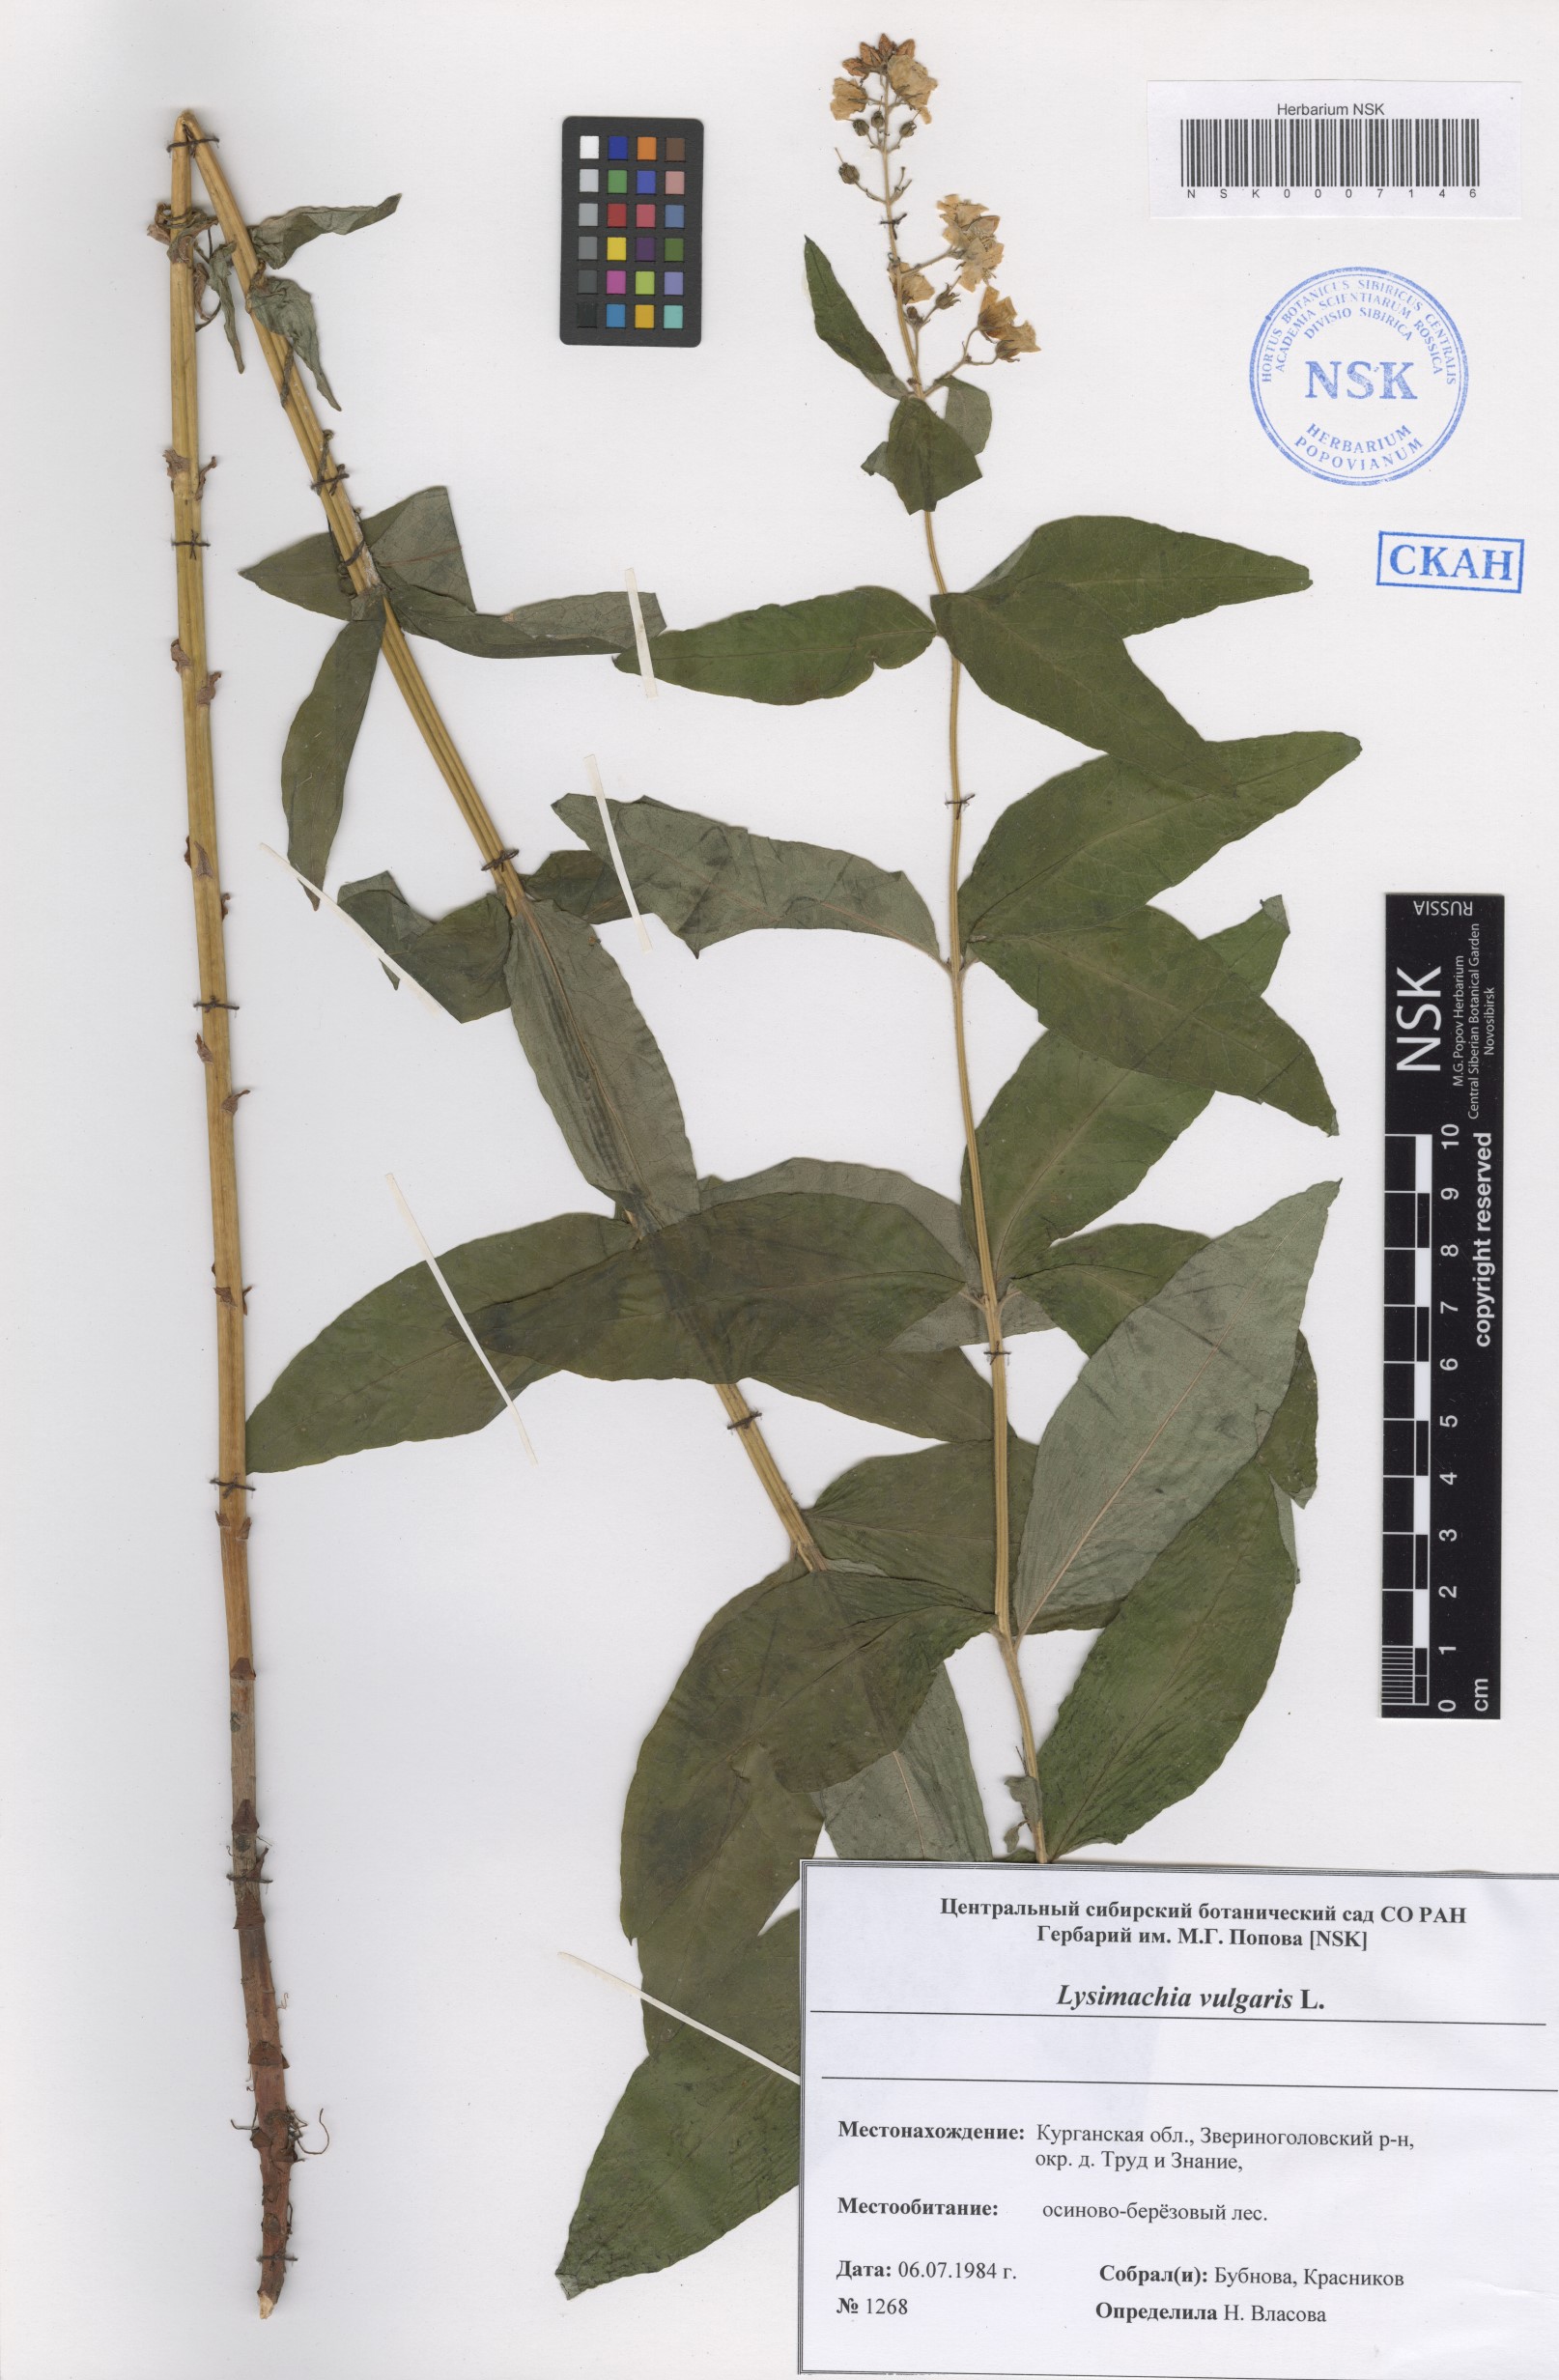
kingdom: Plantae
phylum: Tracheophyta
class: Magnoliopsida
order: Ericales
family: Primulaceae
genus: Lysimachia
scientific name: Lysimachia vulgaris
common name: Yellow loosestrife
